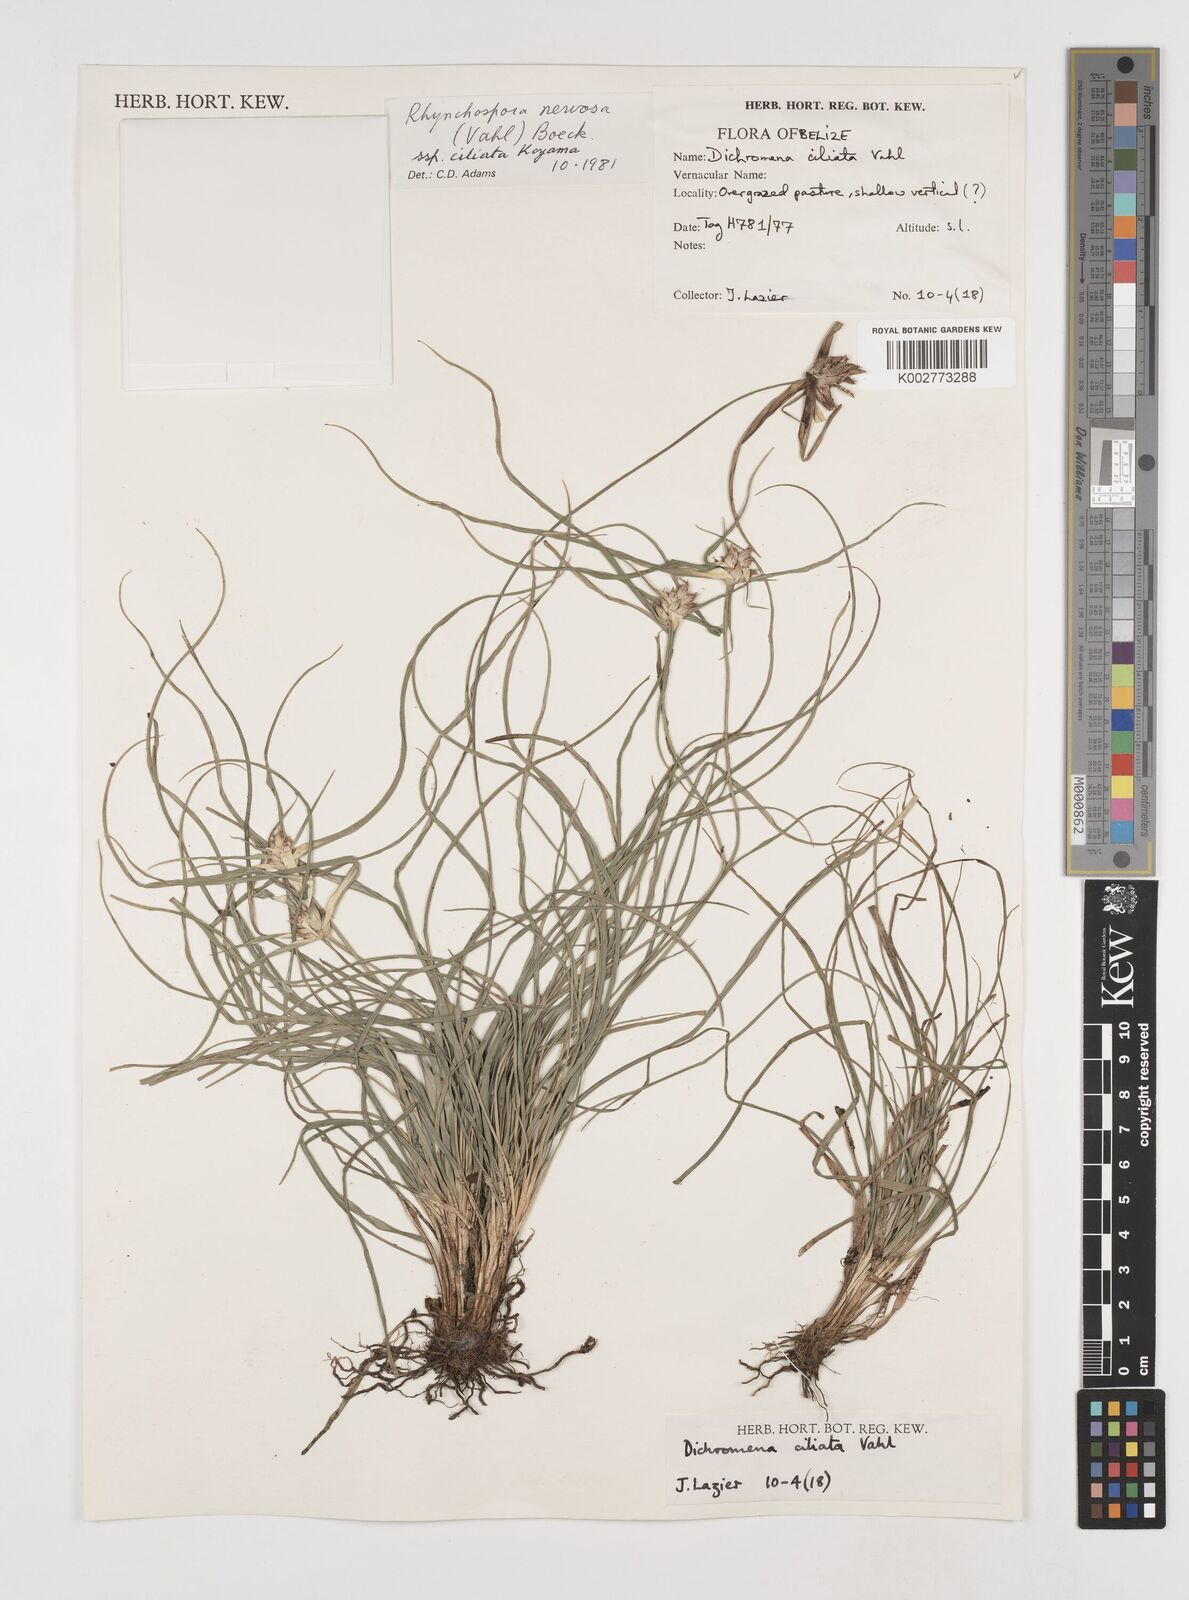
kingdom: Plantae
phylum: Tracheophyta
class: Liliopsida
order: Poales
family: Cyperaceae
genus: Rhynchospora
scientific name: Rhynchospora pura
